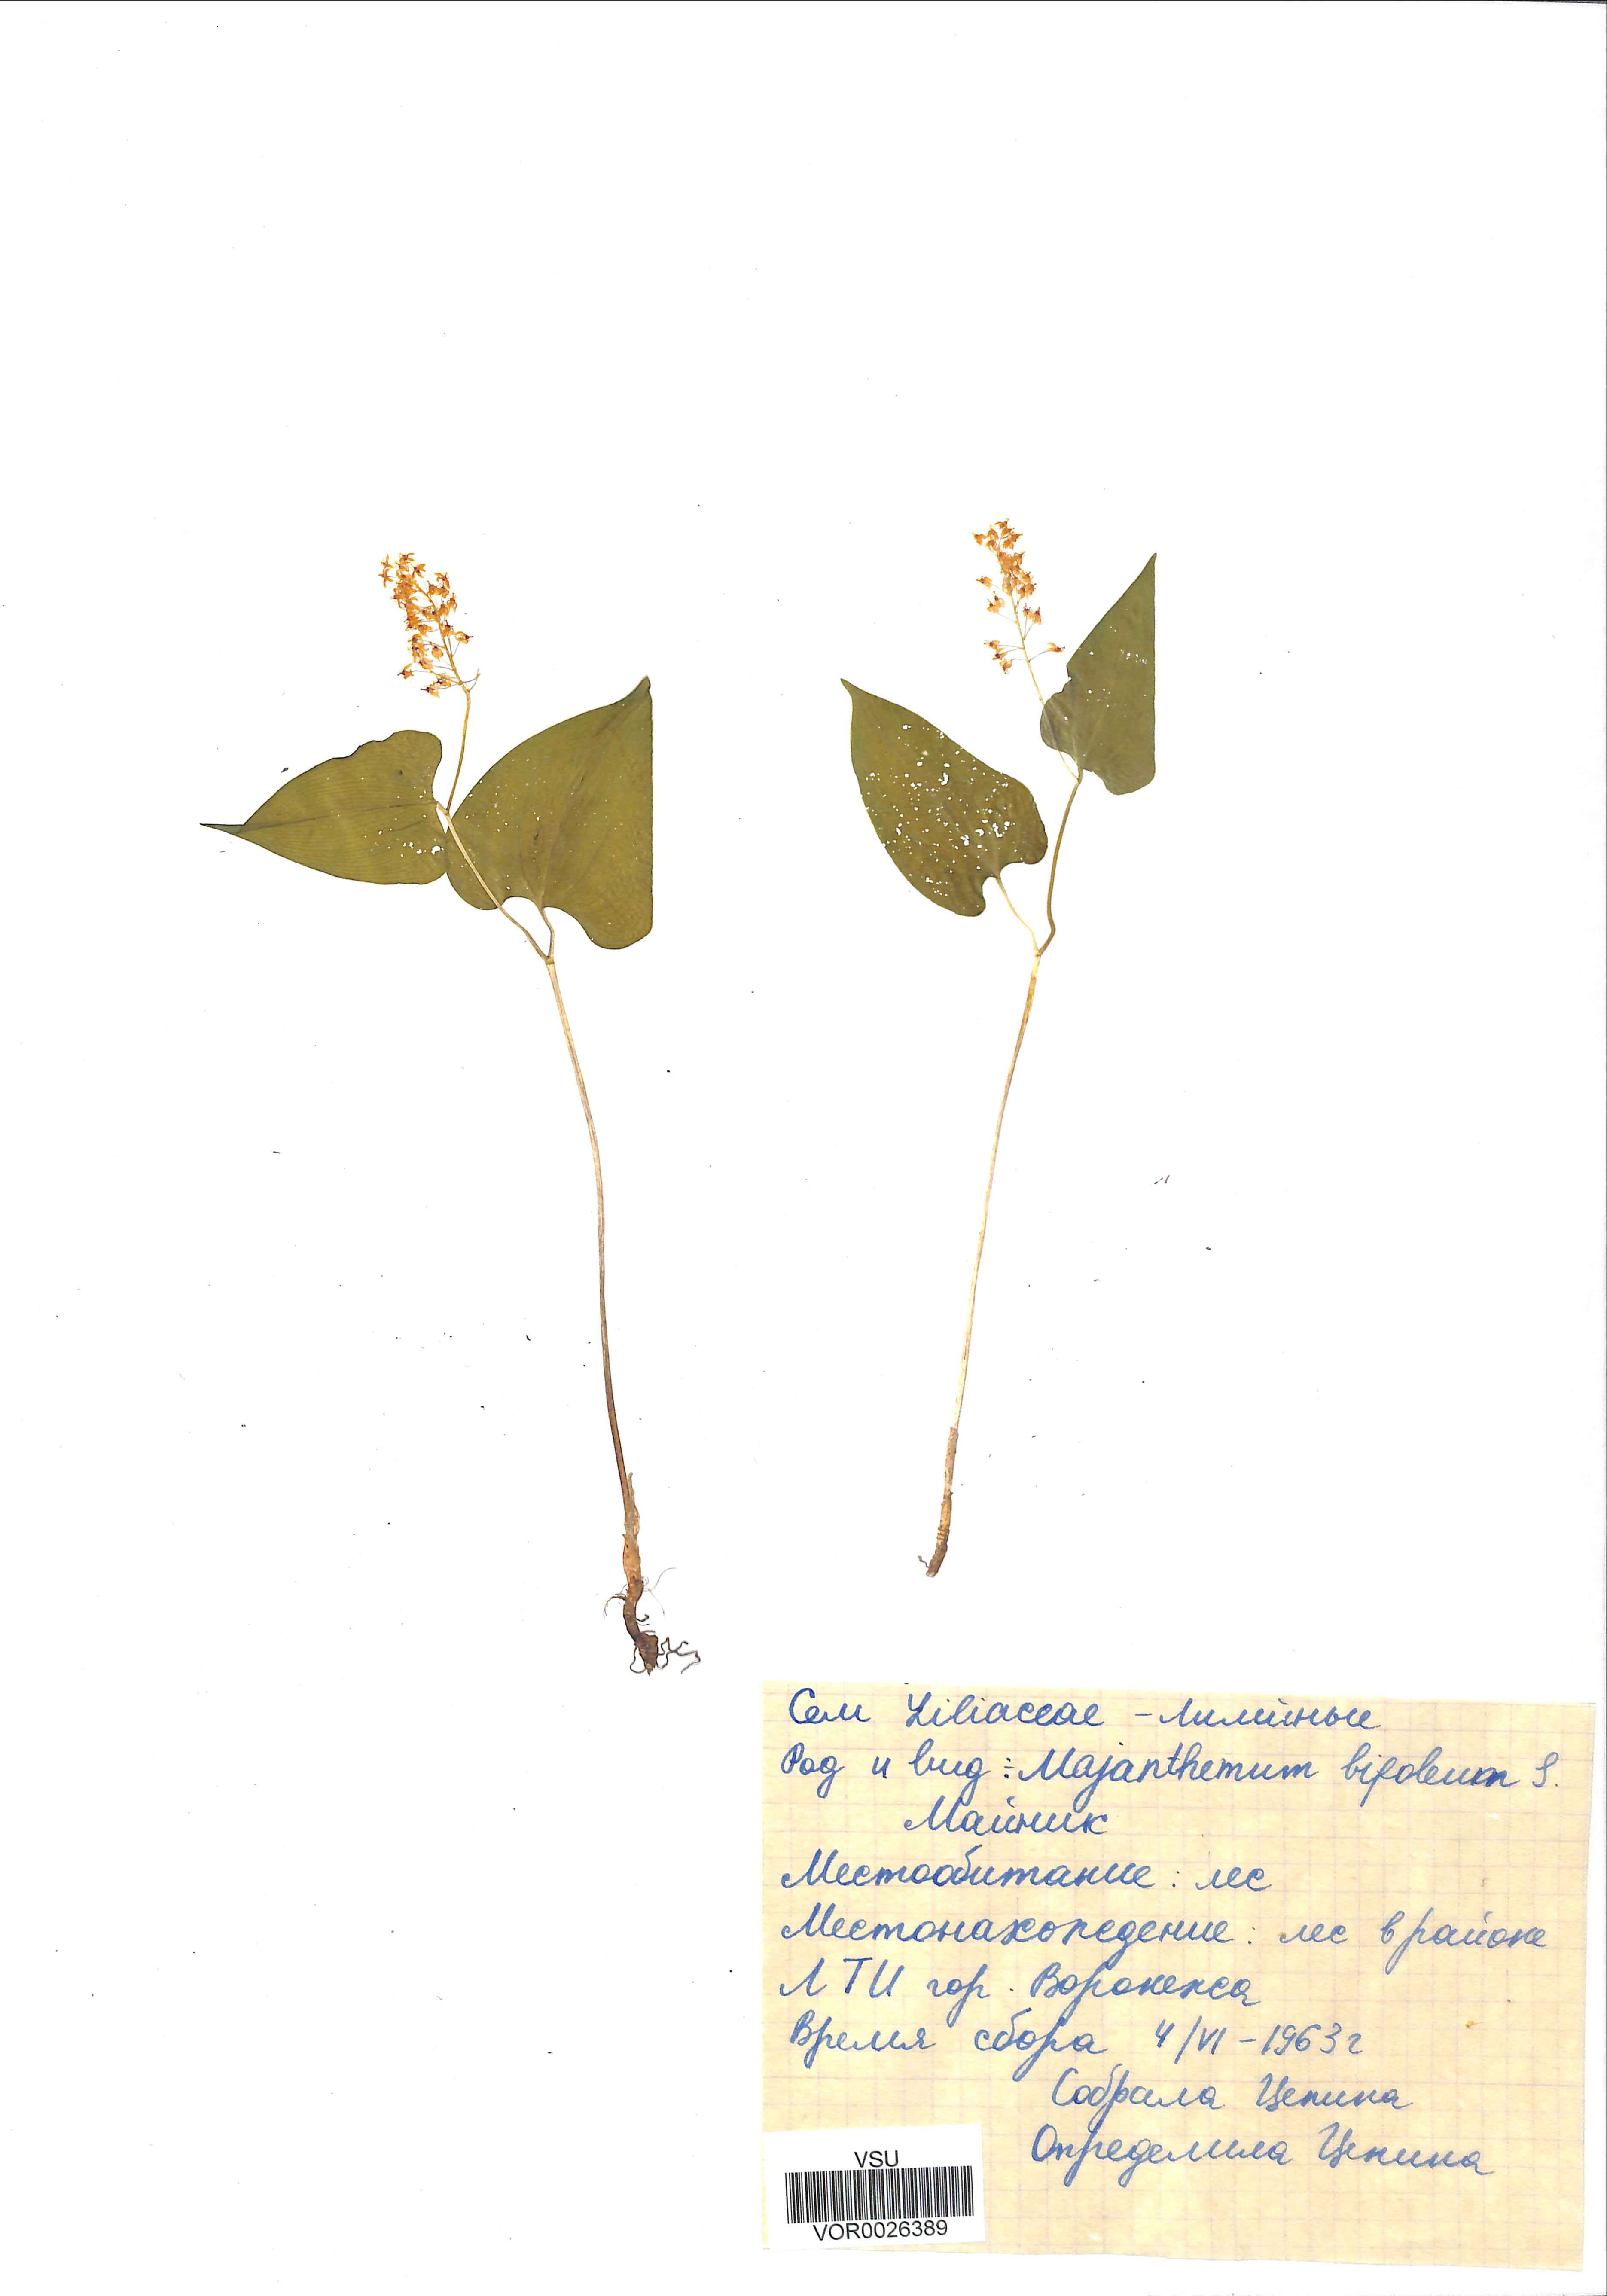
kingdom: Plantae
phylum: Tracheophyta
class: Liliopsida
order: Asparagales
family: Asparagaceae
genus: Maianthemum
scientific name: Maianthemum bifolium
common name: May lily
